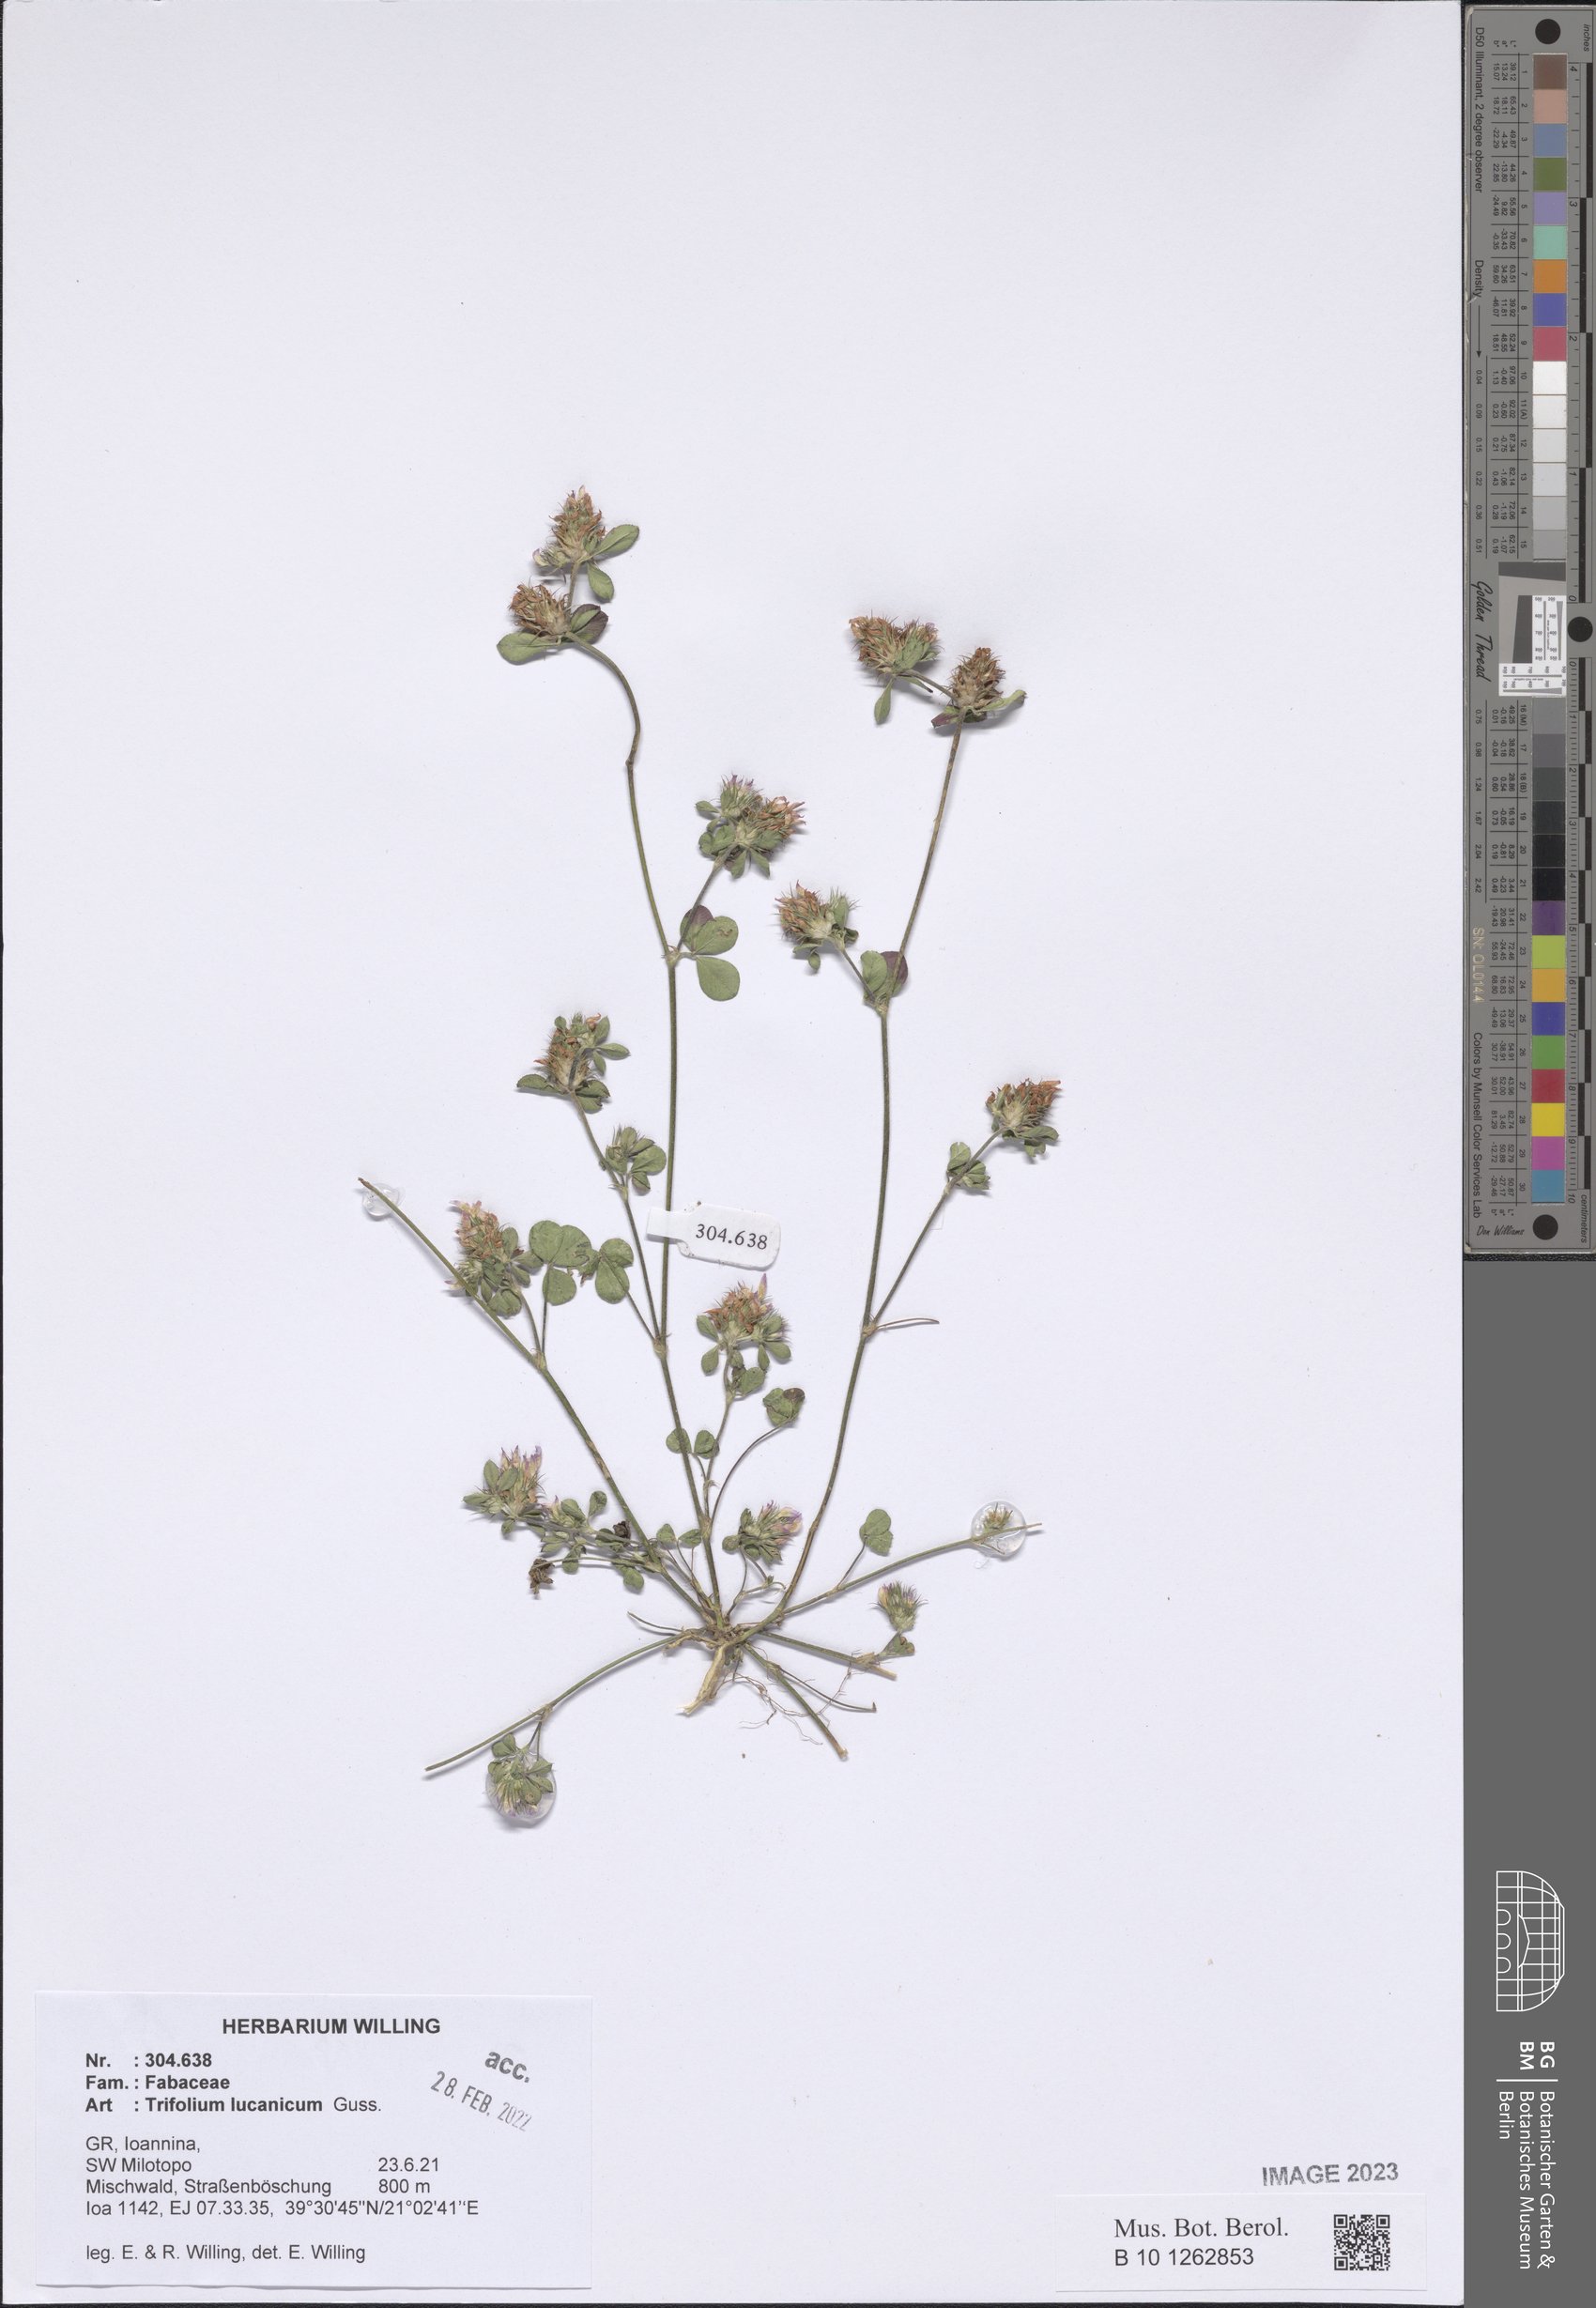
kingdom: Plantae
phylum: Tracheophyta
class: Magnoliopsida
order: Fabales
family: Fabaceae
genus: Trifolium
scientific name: Trifolium lucanicum
